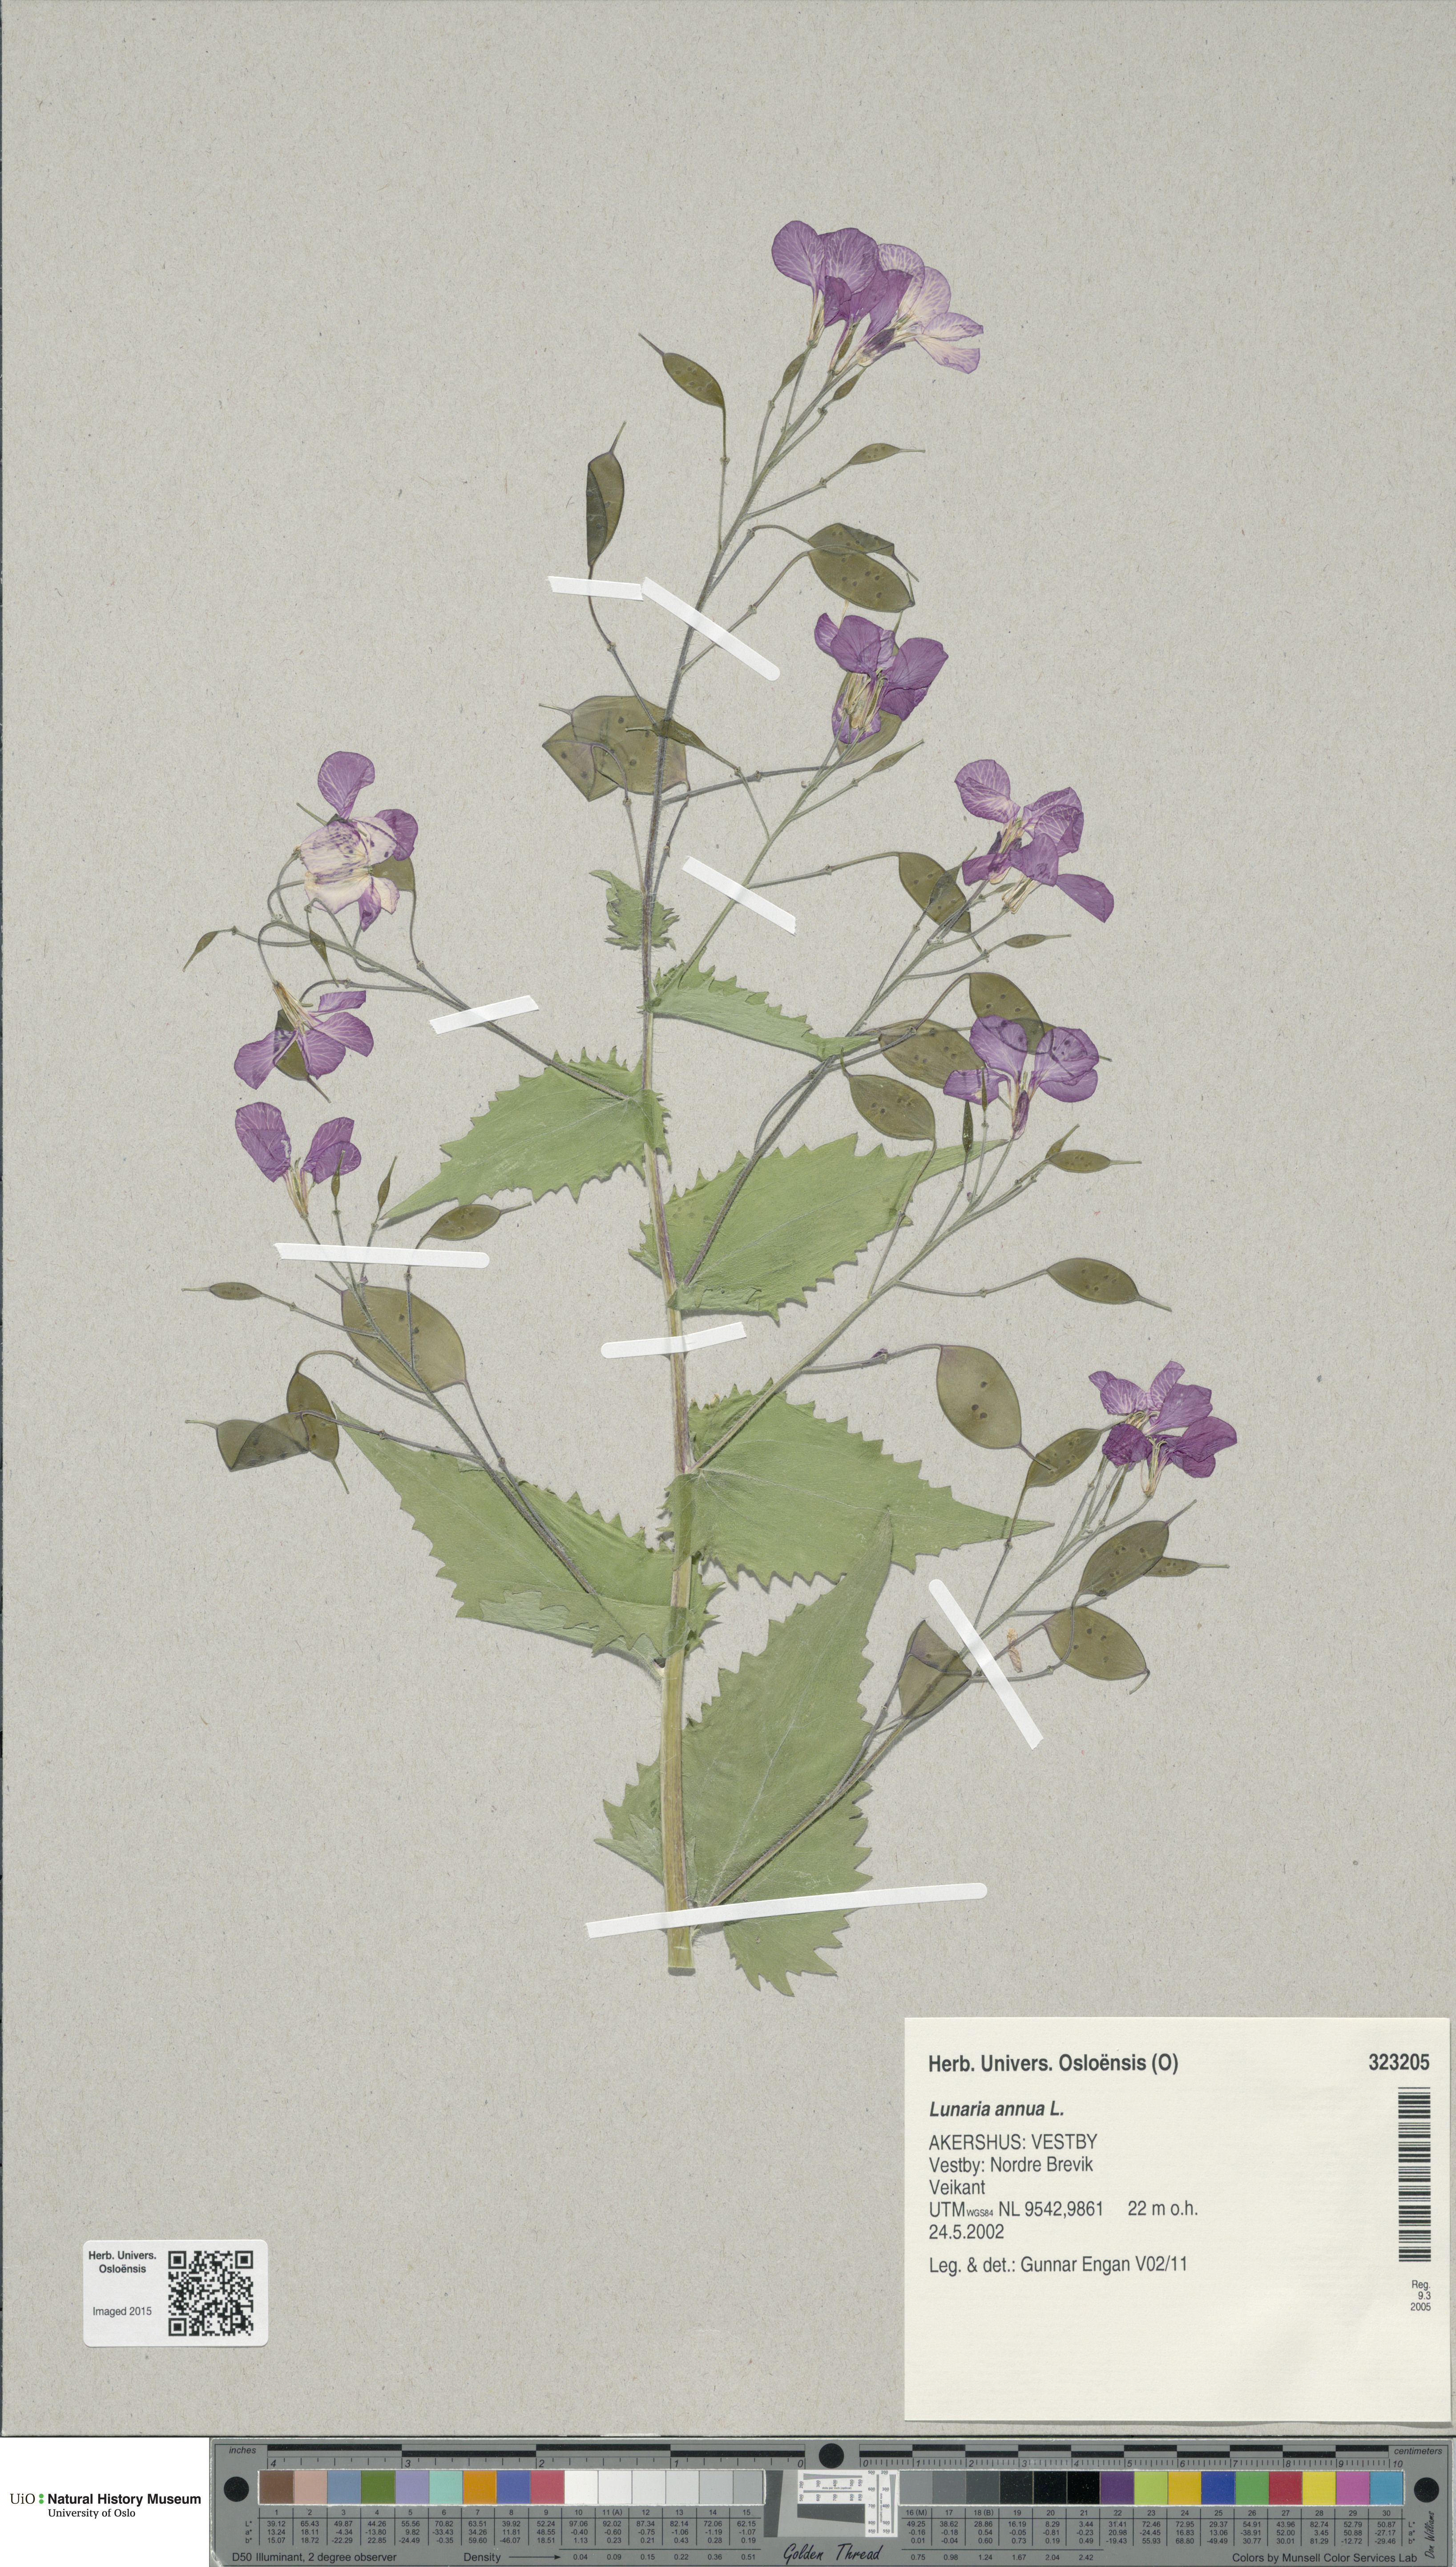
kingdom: Plantae
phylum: Tracheophyta
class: Magnoliopsida
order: Brassicales
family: Brassicaceae
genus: Lunaria
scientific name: Lunaria annua
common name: Honesty
